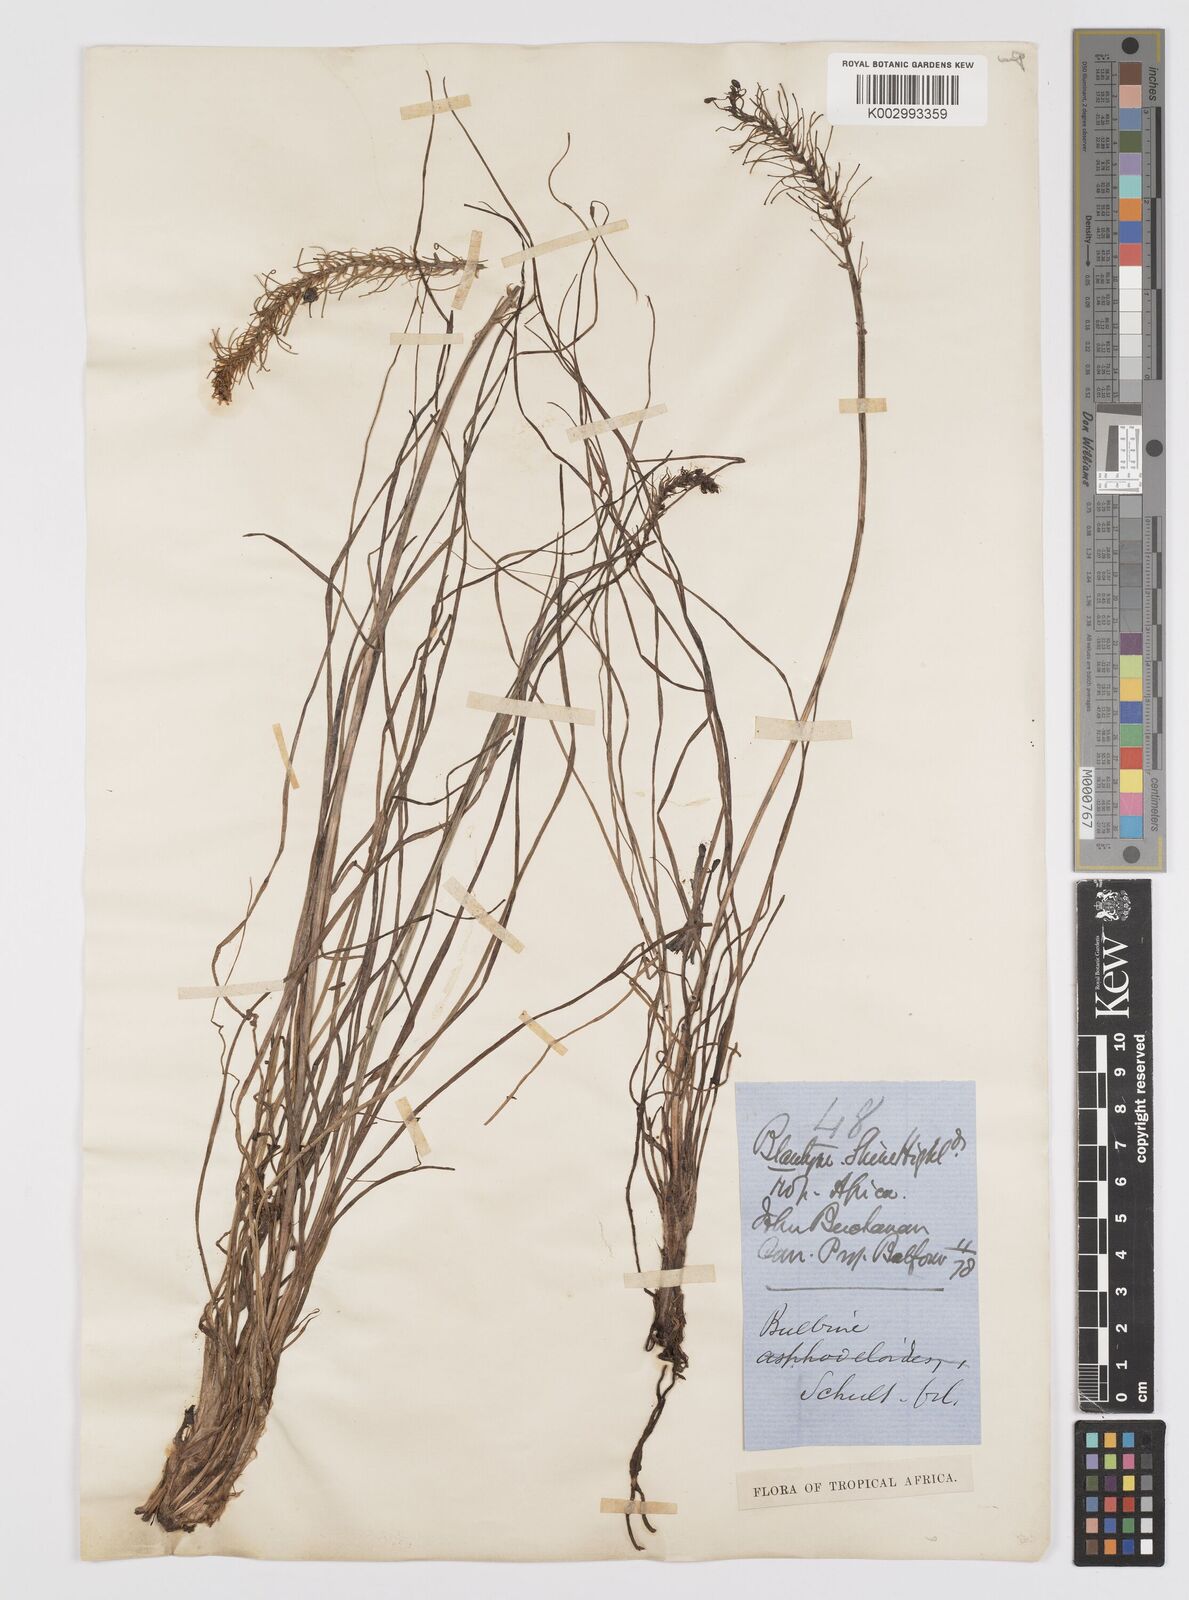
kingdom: Plantae
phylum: Tracheophyta
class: Liliopsida
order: Asparagales
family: Asphodelaceae
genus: Bulbine
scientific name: Bulbine abyssinica
